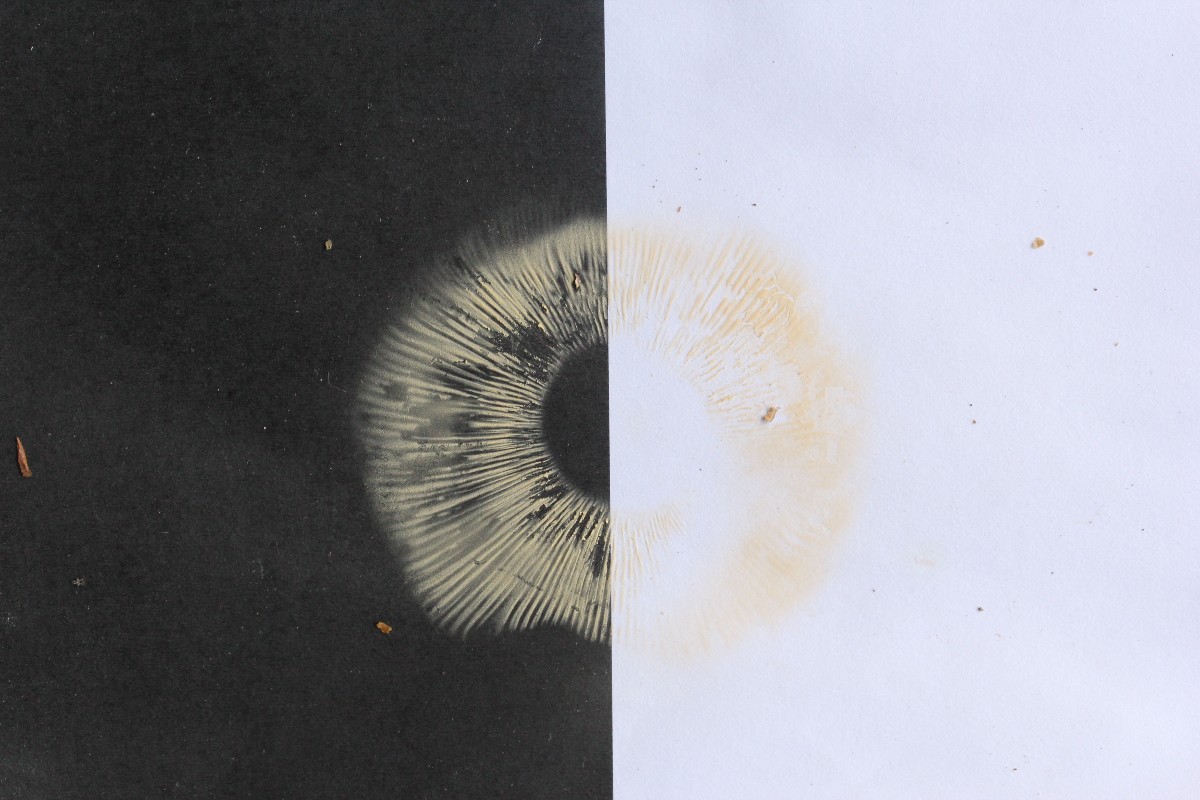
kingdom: Fungi
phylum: Basidiomycota
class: Agaricomycetes
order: Russulales
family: Russulaceae
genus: Russula
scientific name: Russula velenovskyi
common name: orangerød skørhat
